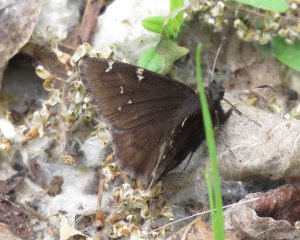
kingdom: Animalia
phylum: Arthropoda
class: Insecta
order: Lepidoptera
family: Hesperiidae
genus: Autochton
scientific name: Autochton
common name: Northern Cloudywing
